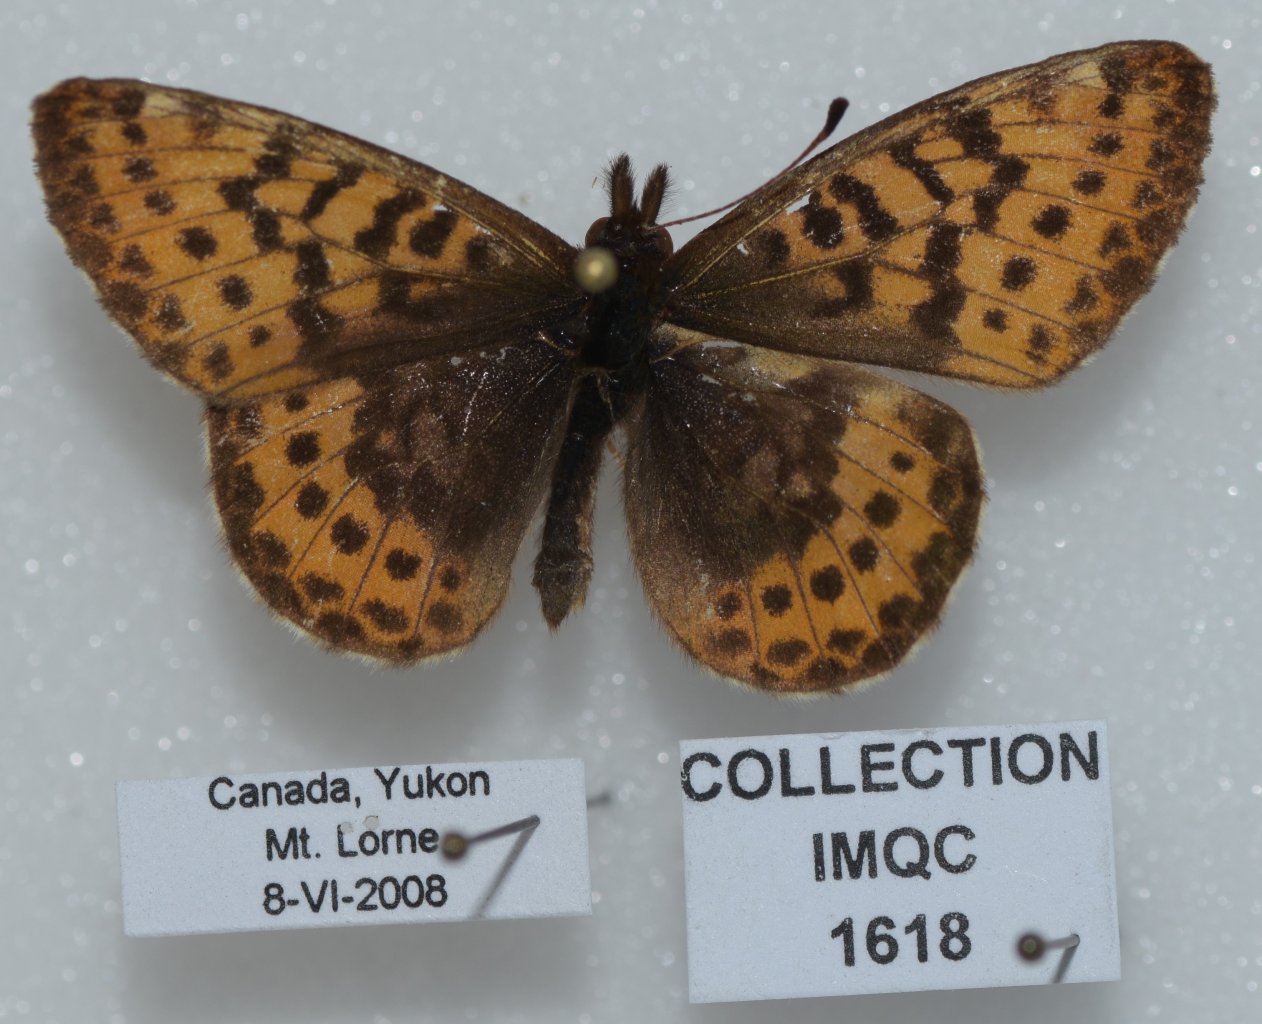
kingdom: Animalia
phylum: Arthropoda
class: Insecta
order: Lepidoptera
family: Nymphalidae
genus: Boloria
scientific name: Boloria frigga
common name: Frigga Fritillary
